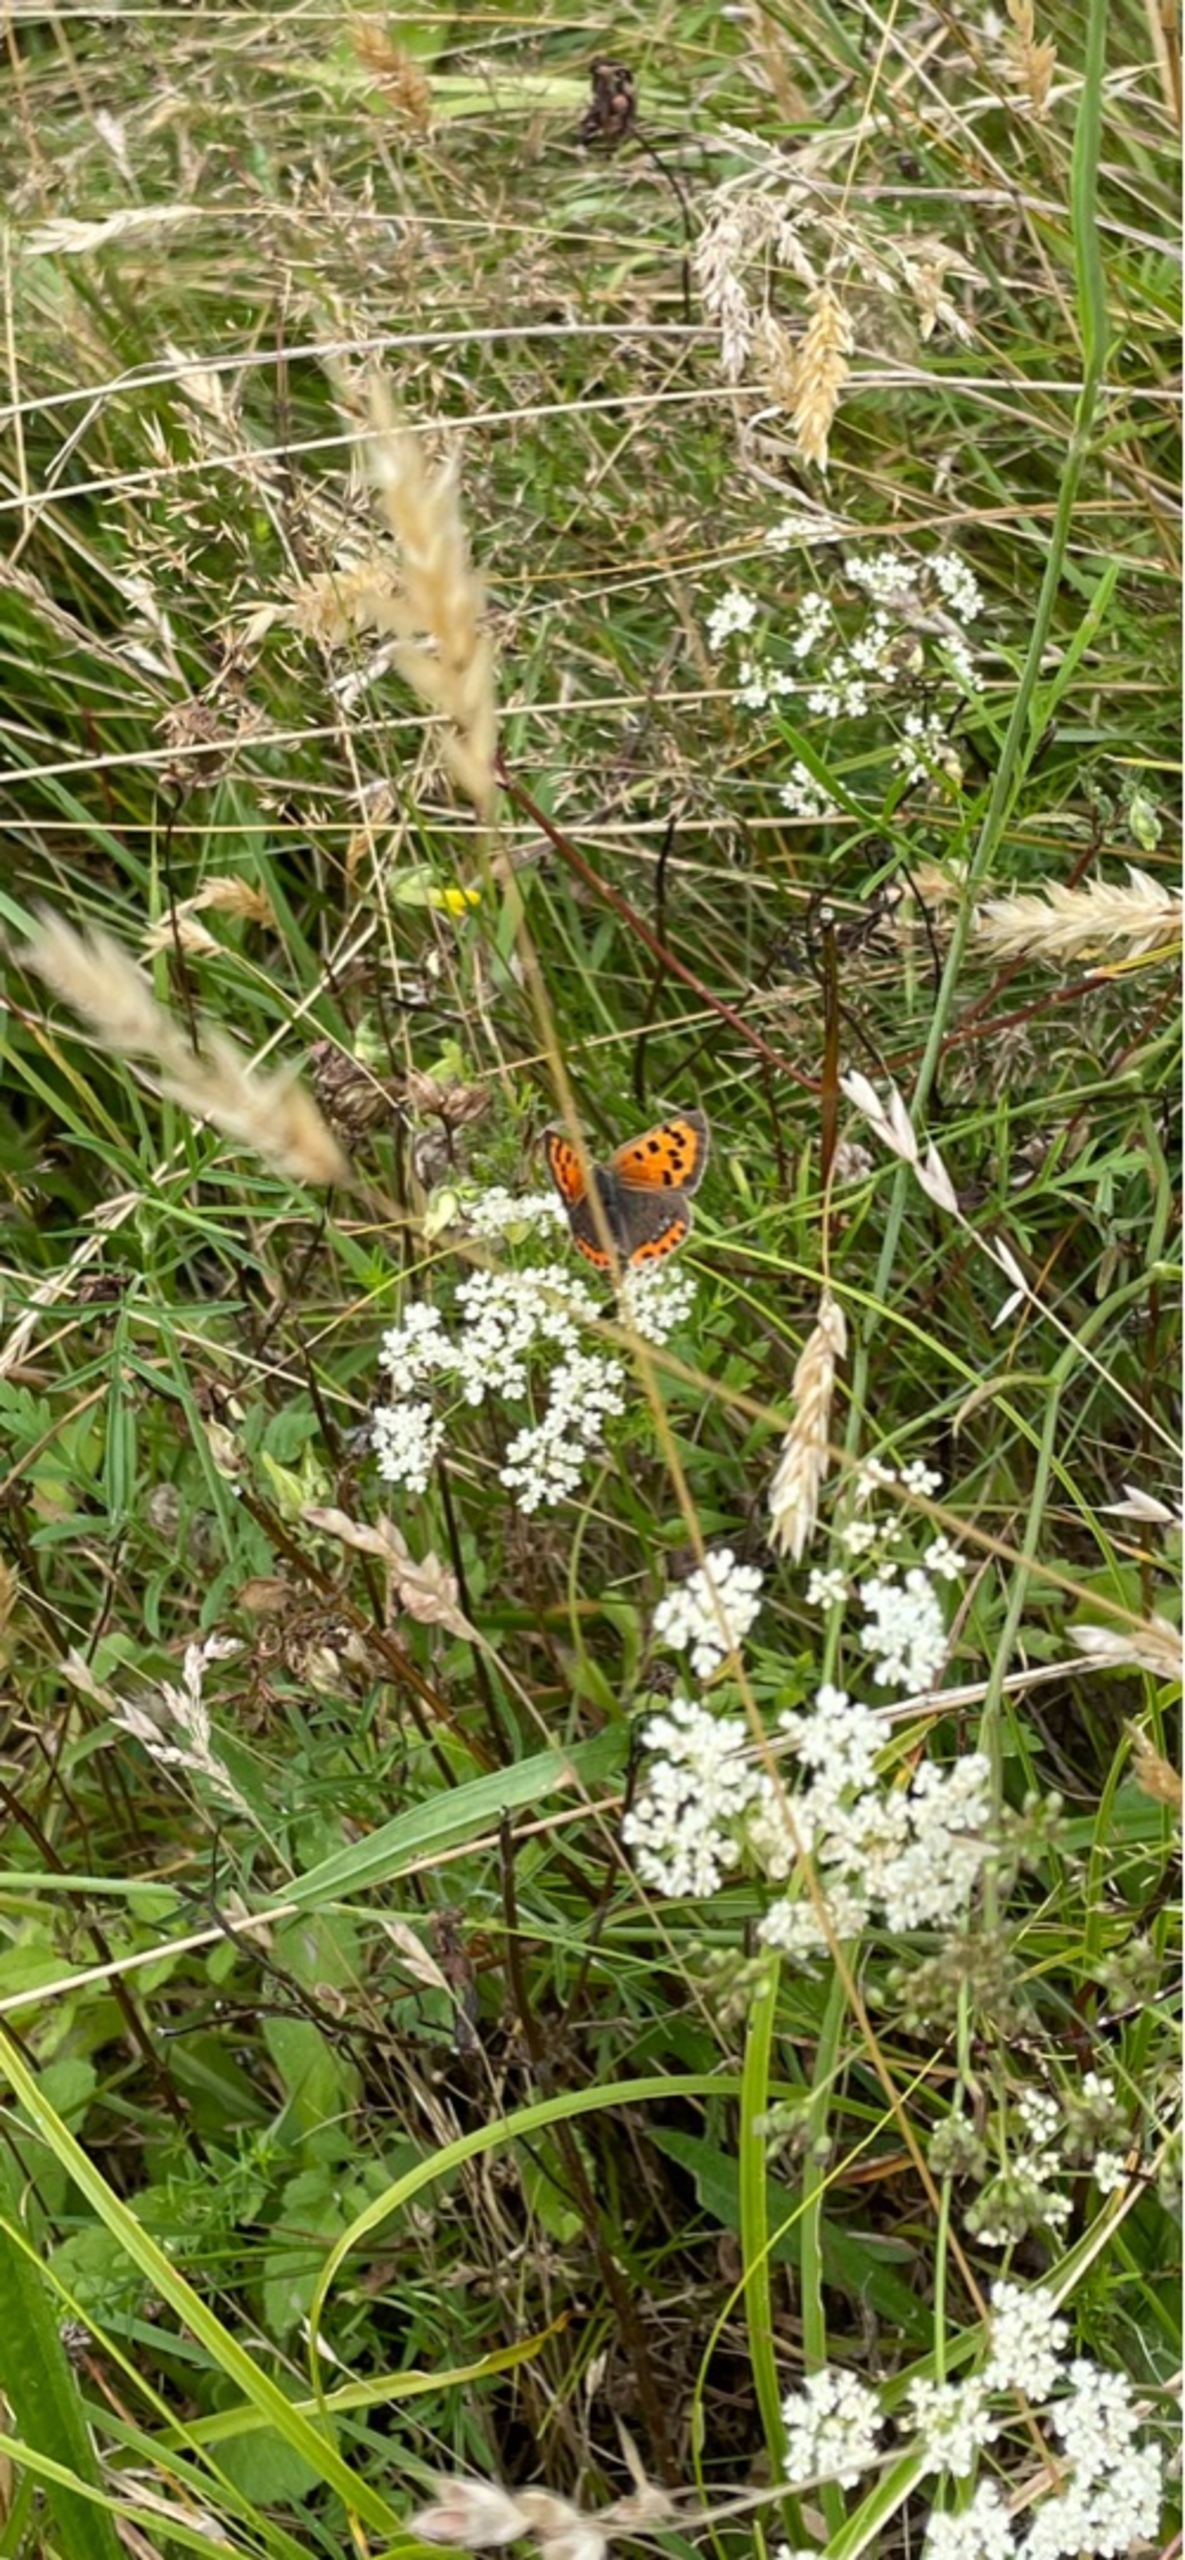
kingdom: Animalia
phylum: Arthropoda
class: Insecta
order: Lepidoptera
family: Lycaenidae
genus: Lycaena
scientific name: Lycaena phlaeas
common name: Lille ildfugl
